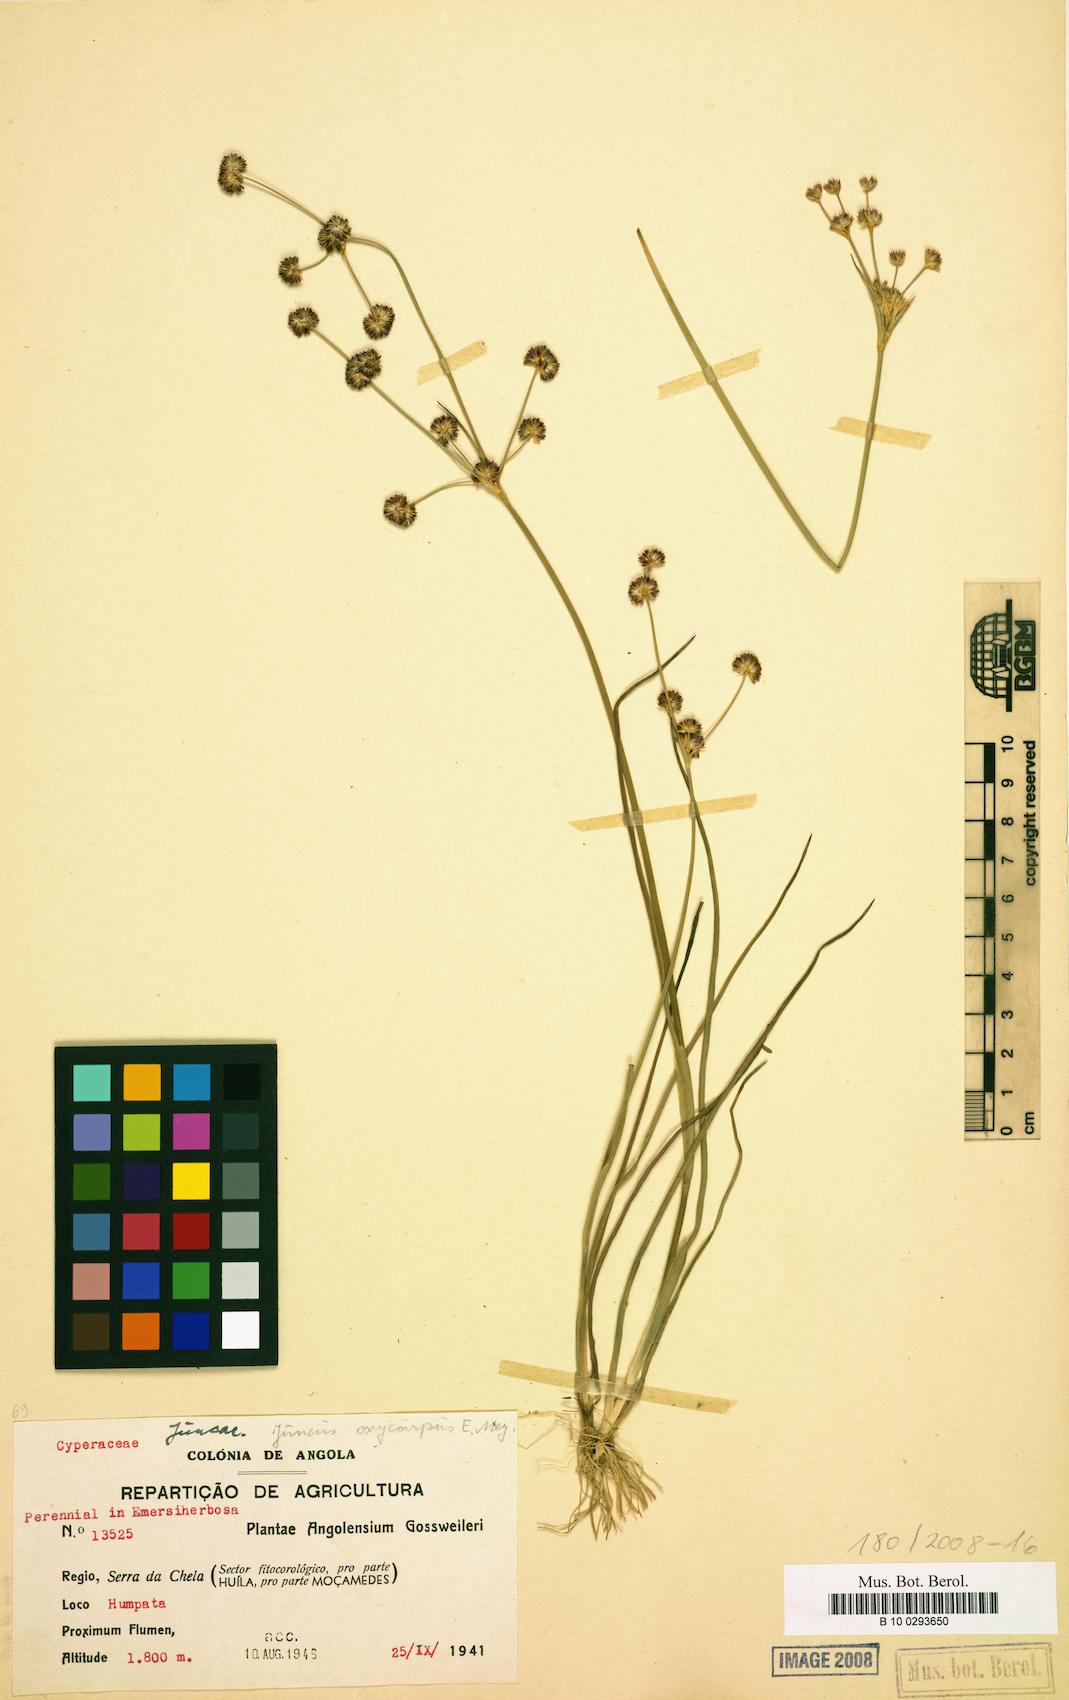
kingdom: Plantae
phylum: Tracheophyta
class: Liliopsida
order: Poales
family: Juncaceae
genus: Juncus
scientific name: Juncus oxycarpus
